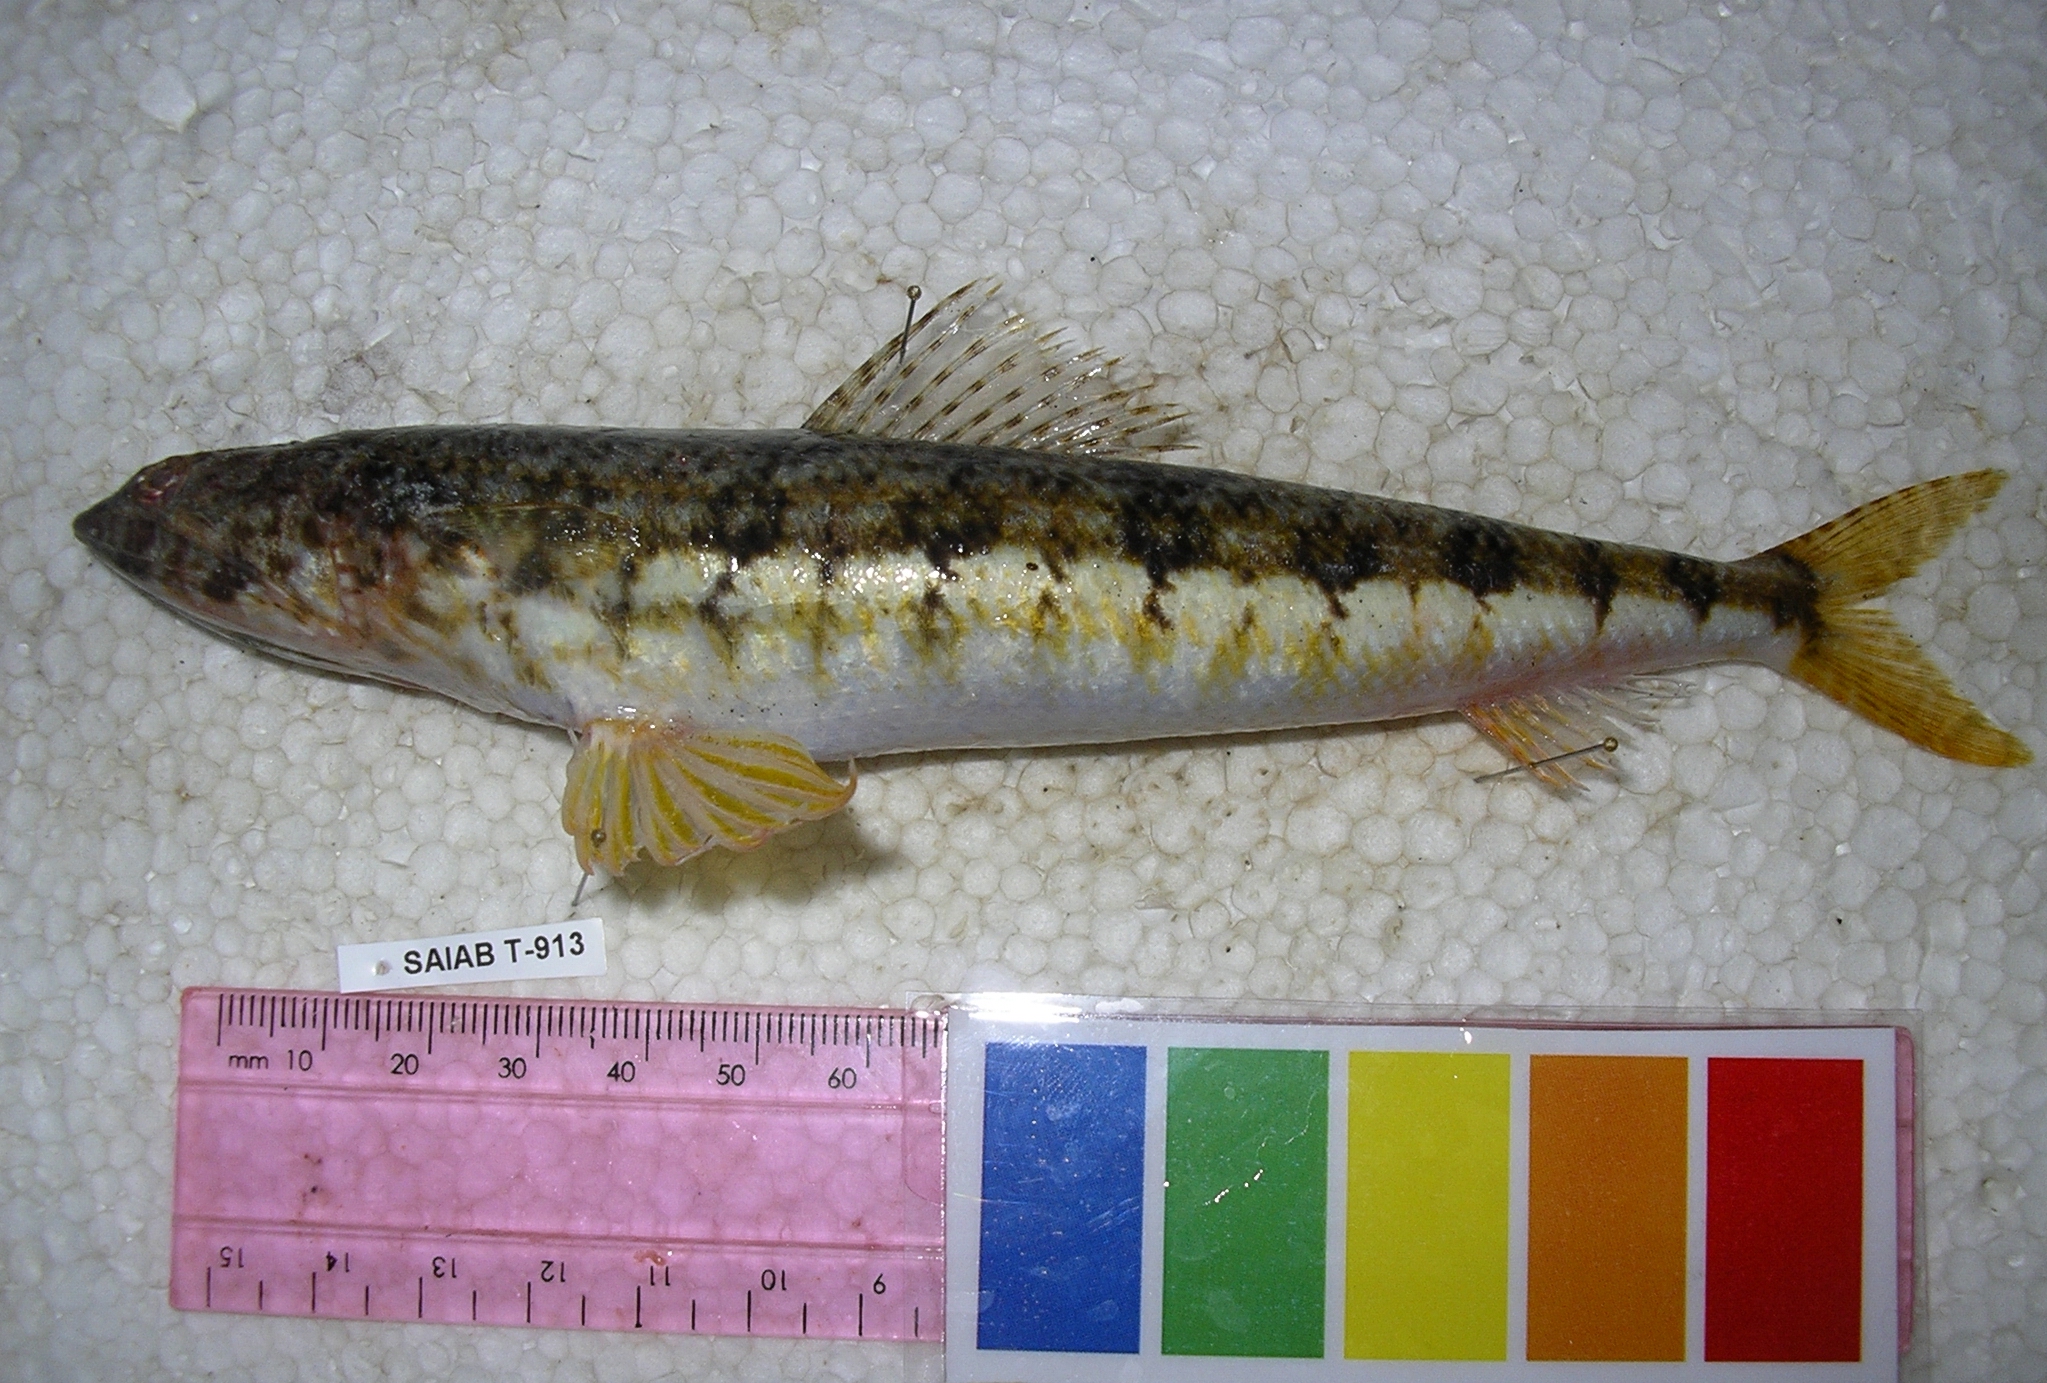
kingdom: Animalia
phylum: Chordata
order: Aulopiformes
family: Synodontidae
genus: Synodus
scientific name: Synodus dermatogenys
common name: Banded lizardfish
